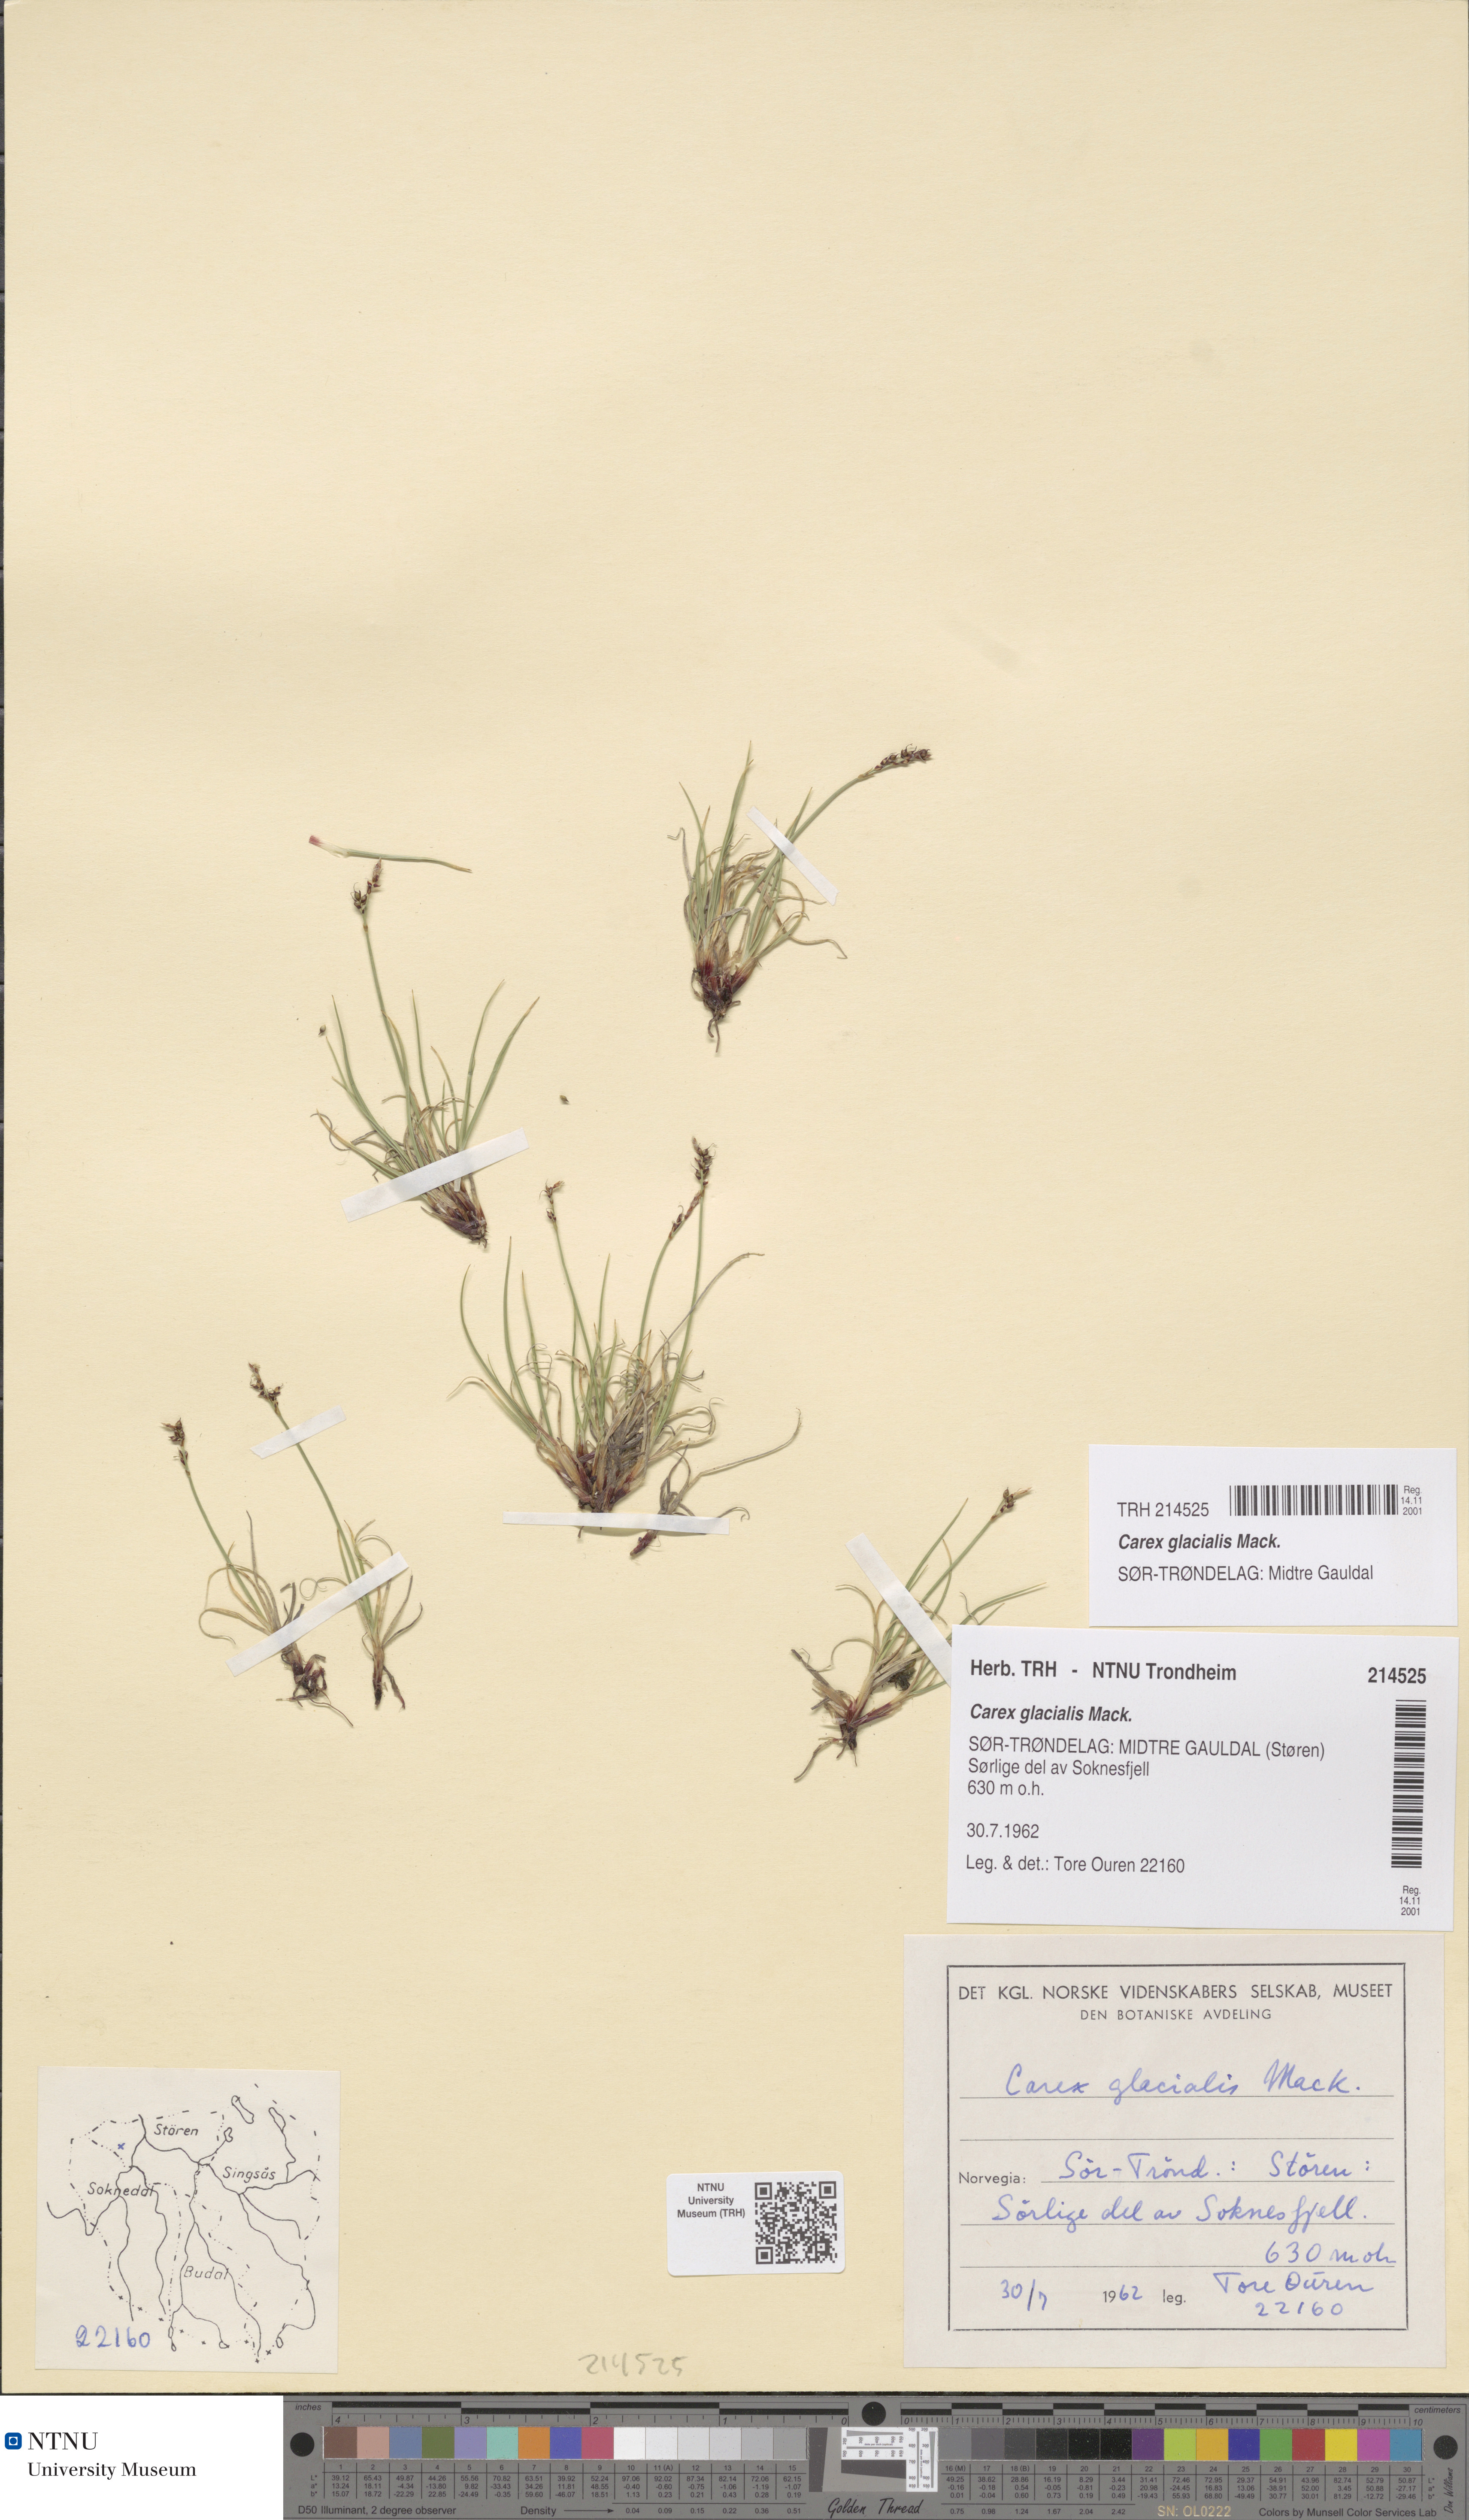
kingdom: Plantae
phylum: Tracheophyta
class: Liliopsida
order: Poales
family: Cyperaceae
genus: Carex
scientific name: Carex glacialis
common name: Newfoundland sedge
